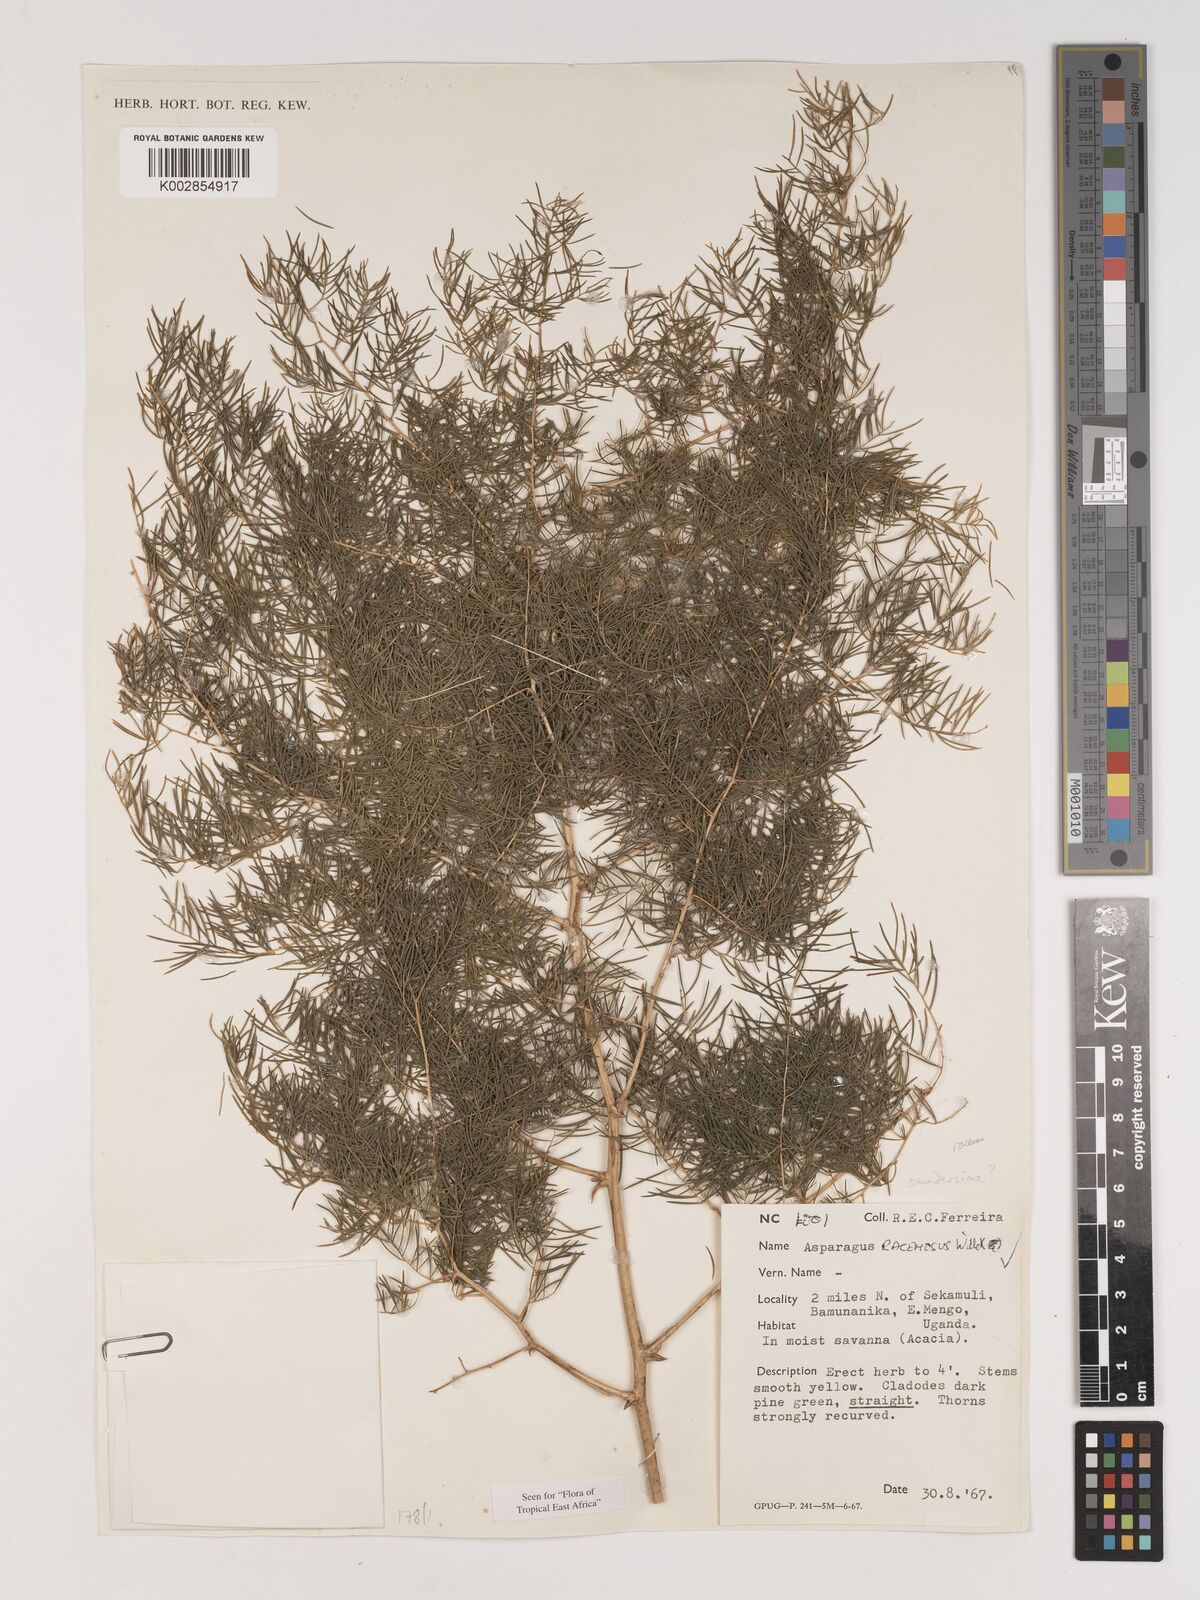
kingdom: Plantae
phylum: Tracheophyta
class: Liliopsida
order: Asparagales
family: Asparagaceae
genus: Asparagus
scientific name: Asparagus racemosus
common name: Asparagus-fern
